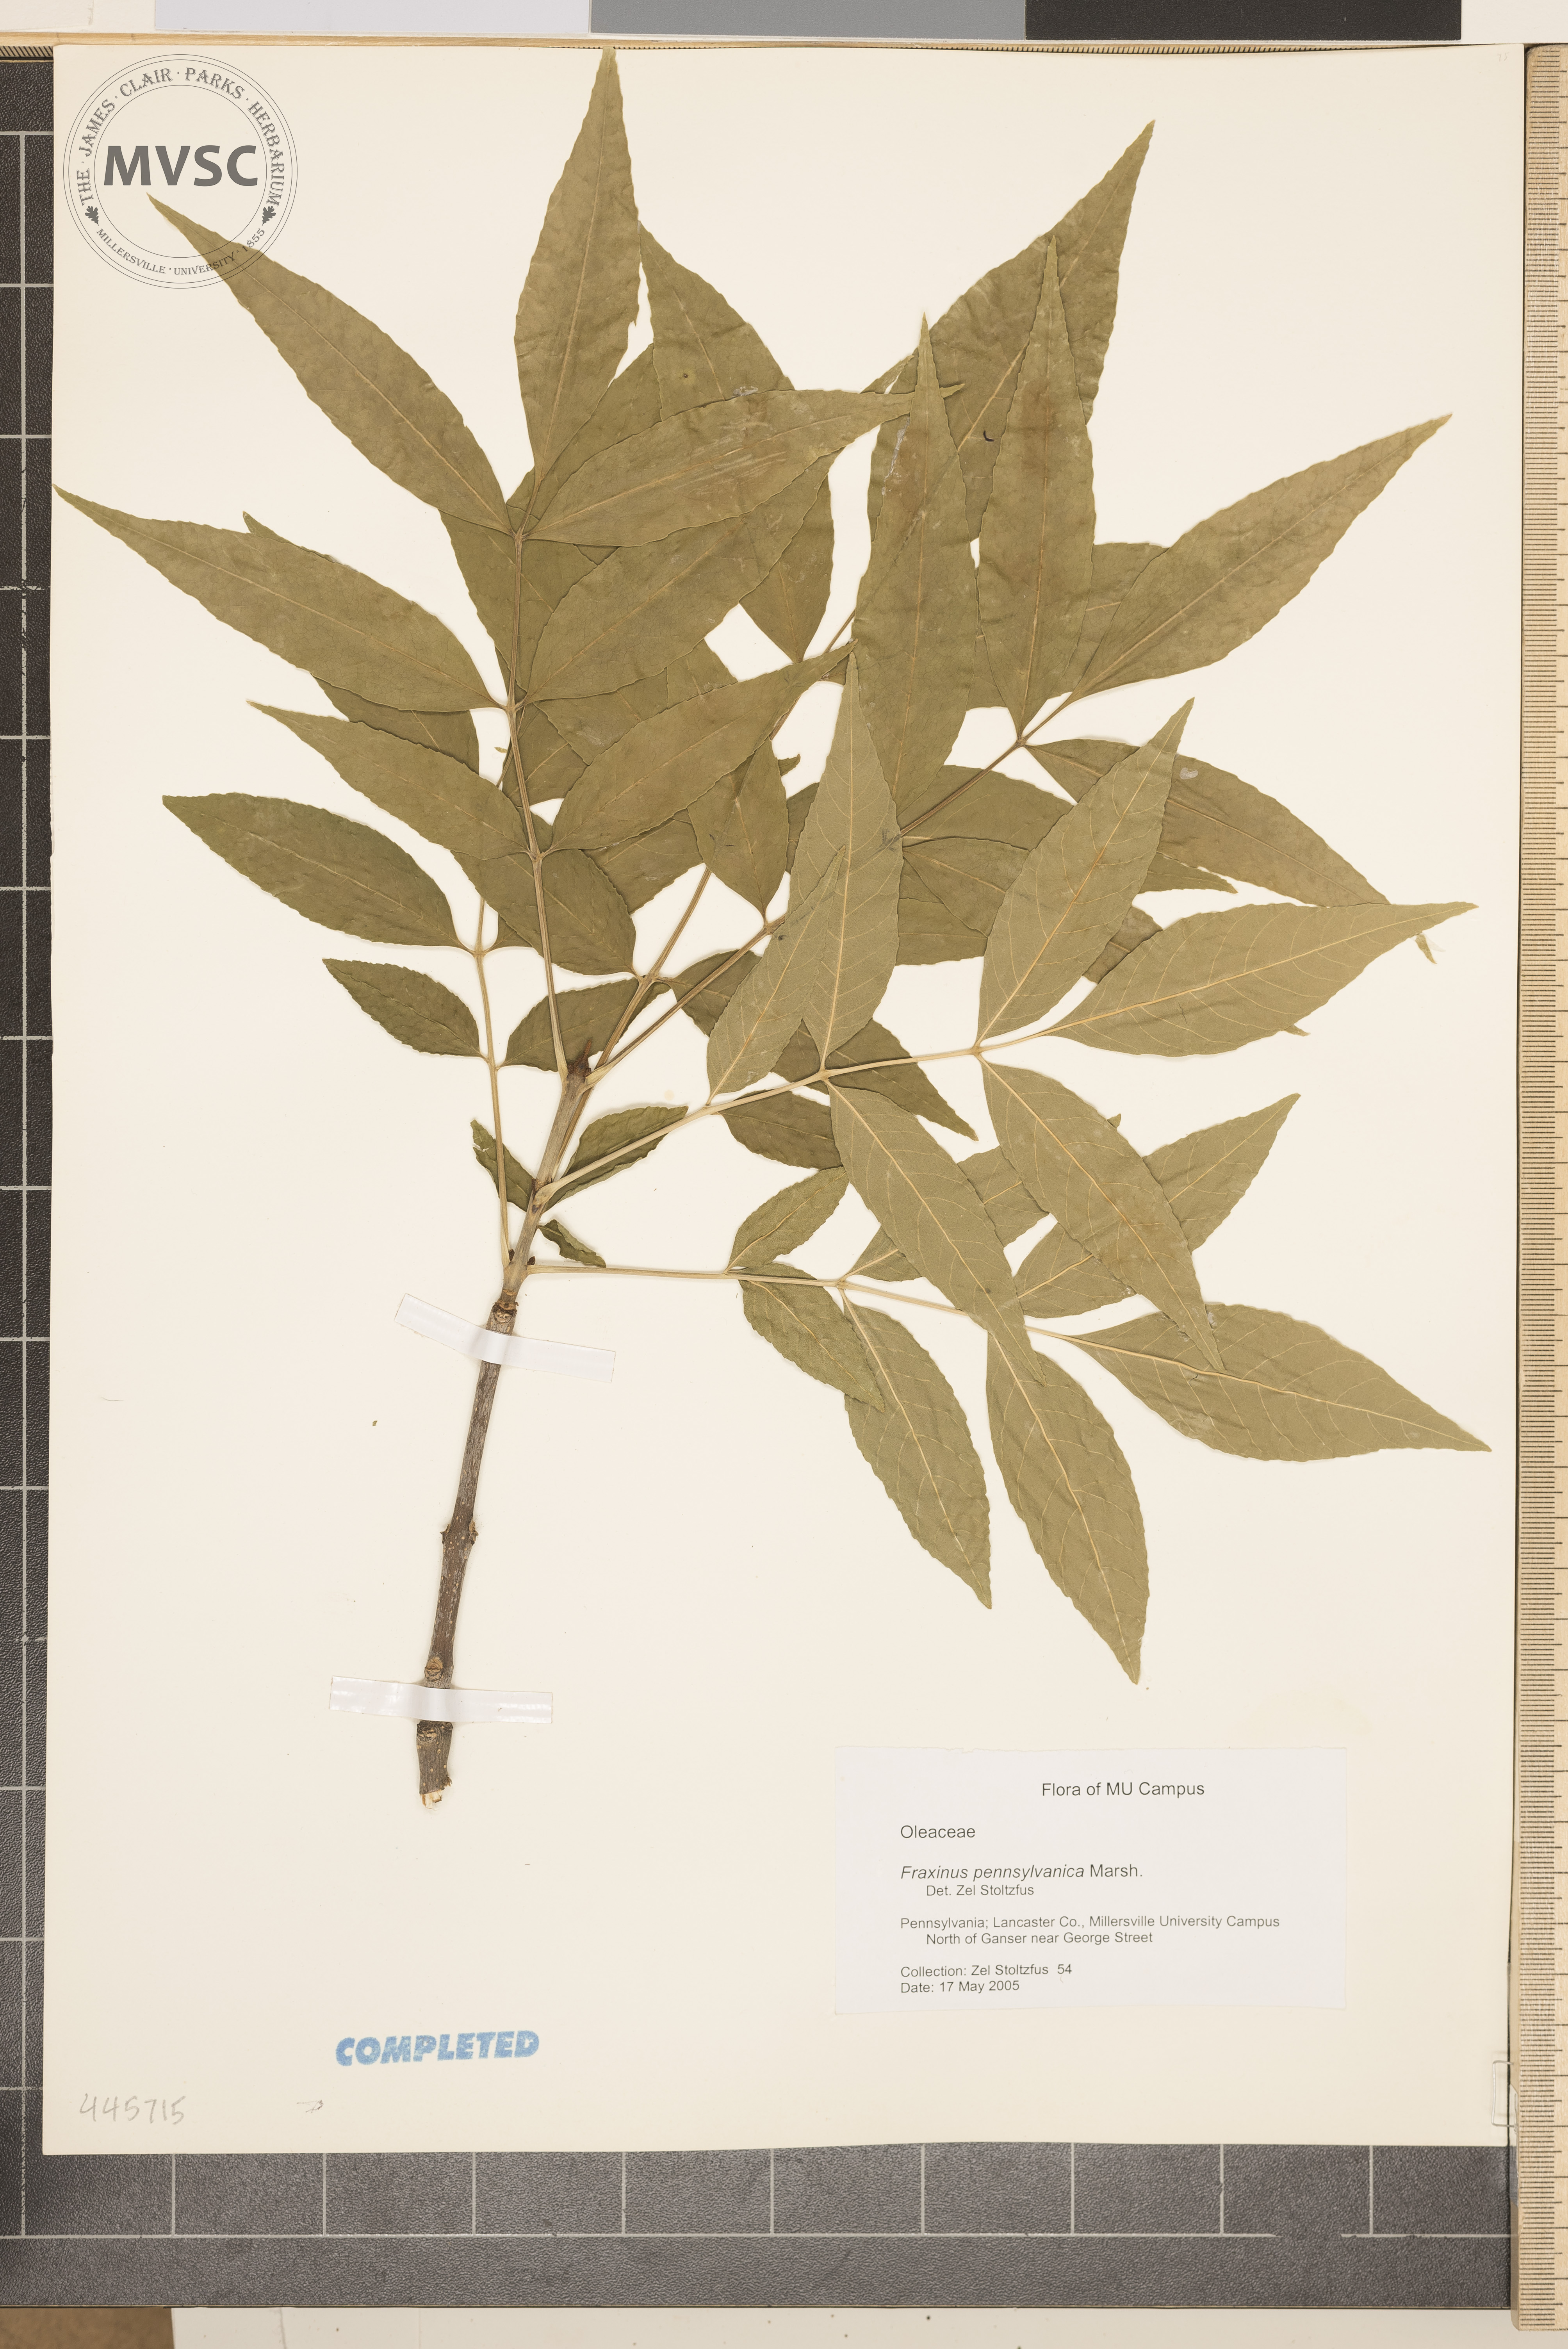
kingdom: Plantae
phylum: Tracheophyta
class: Magnoliopsida
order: Lamiales
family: Oleaceae
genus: Fraxinus
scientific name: Fraxinus pennsylvanica
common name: Green ash
